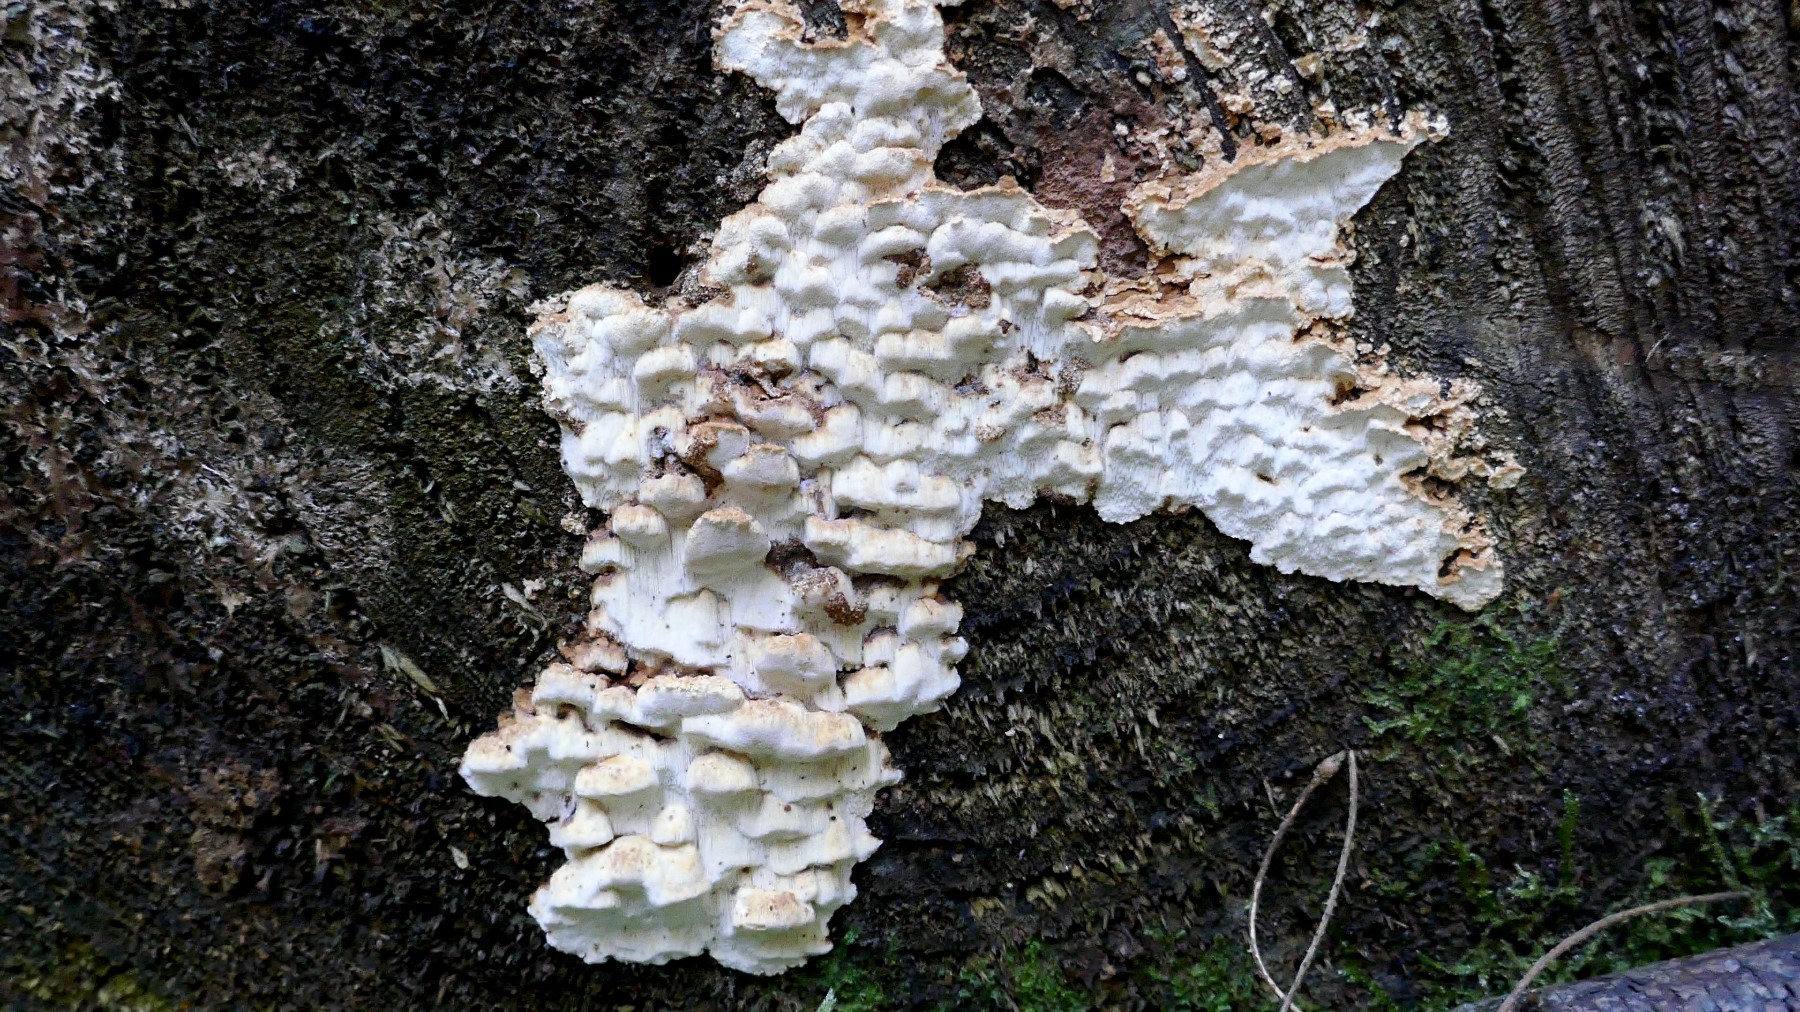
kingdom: Fungi
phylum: Basidiomycota
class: Agaricomycetes
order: Polyporales
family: Fomitopsidaceae
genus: Neoantrodia
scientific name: Neoantrodia serialis
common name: række-sejporesvamp
